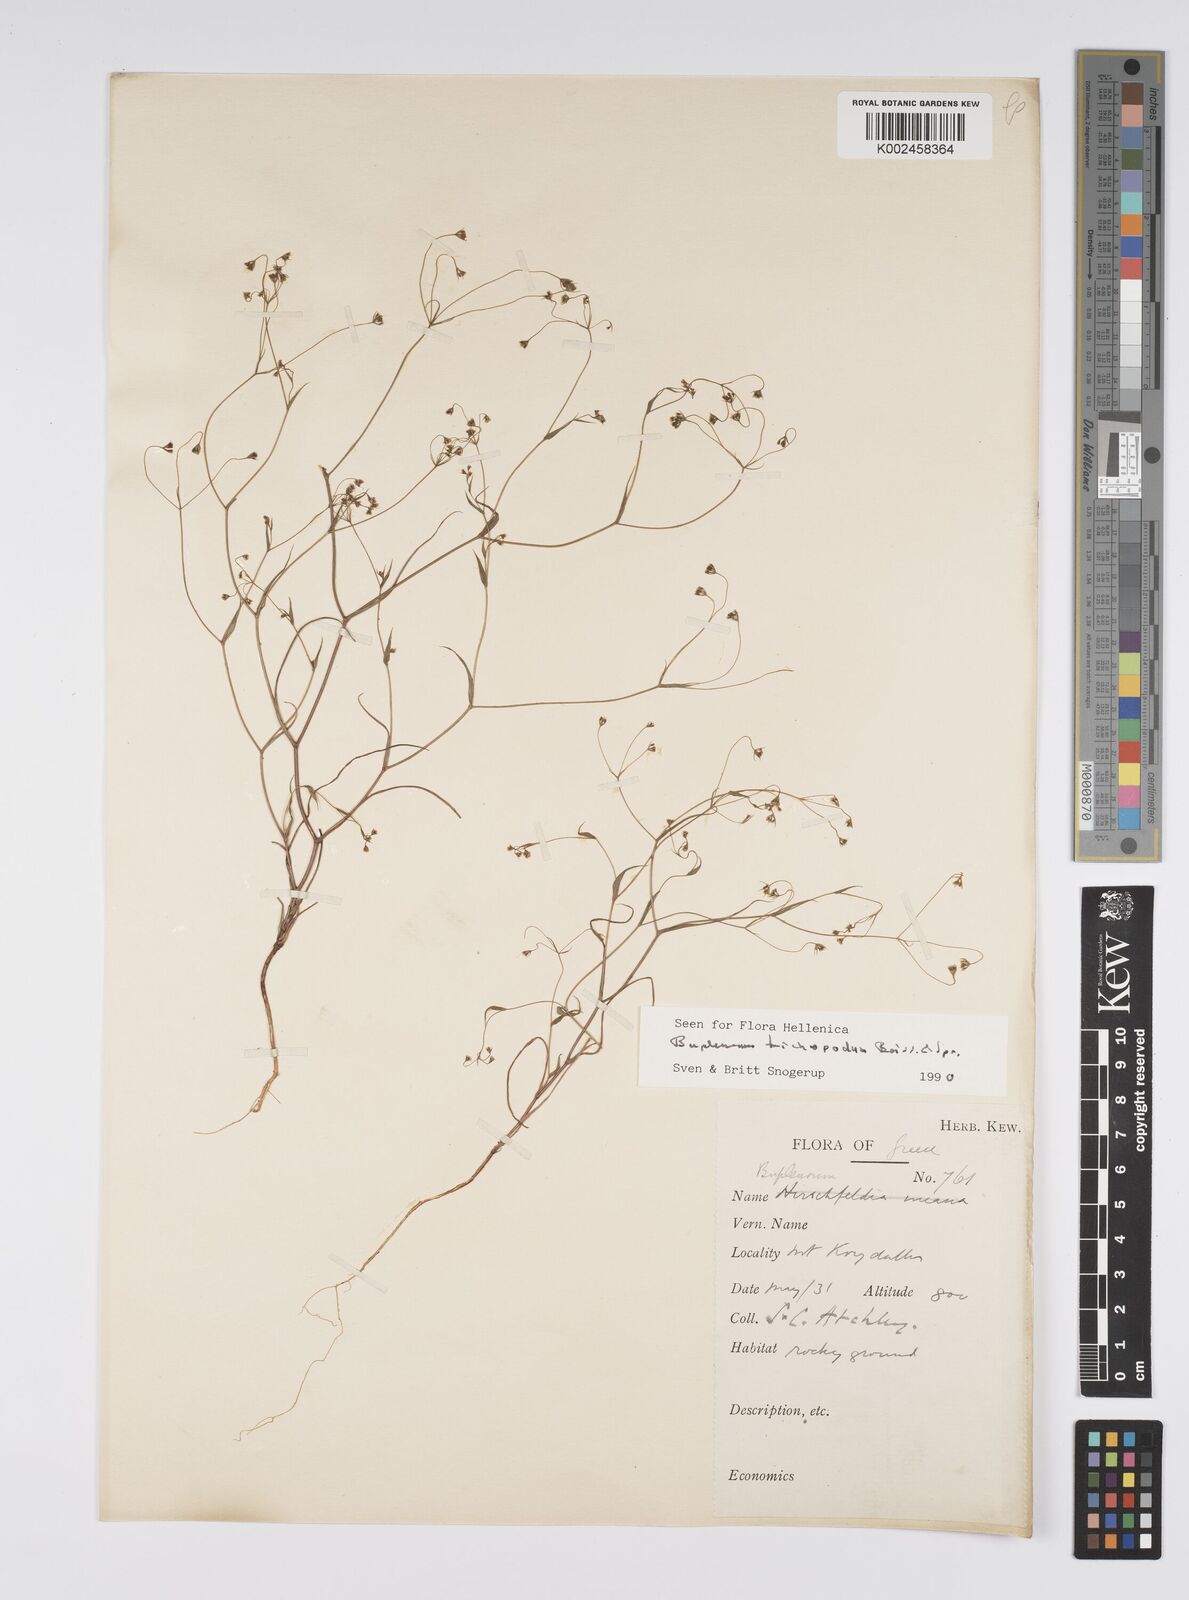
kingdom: Plantae
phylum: Tracheophyta
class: Magnoliopsida
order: Apiales
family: Apiaceae
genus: Bupleurum
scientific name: Bupleurum trichopodum
